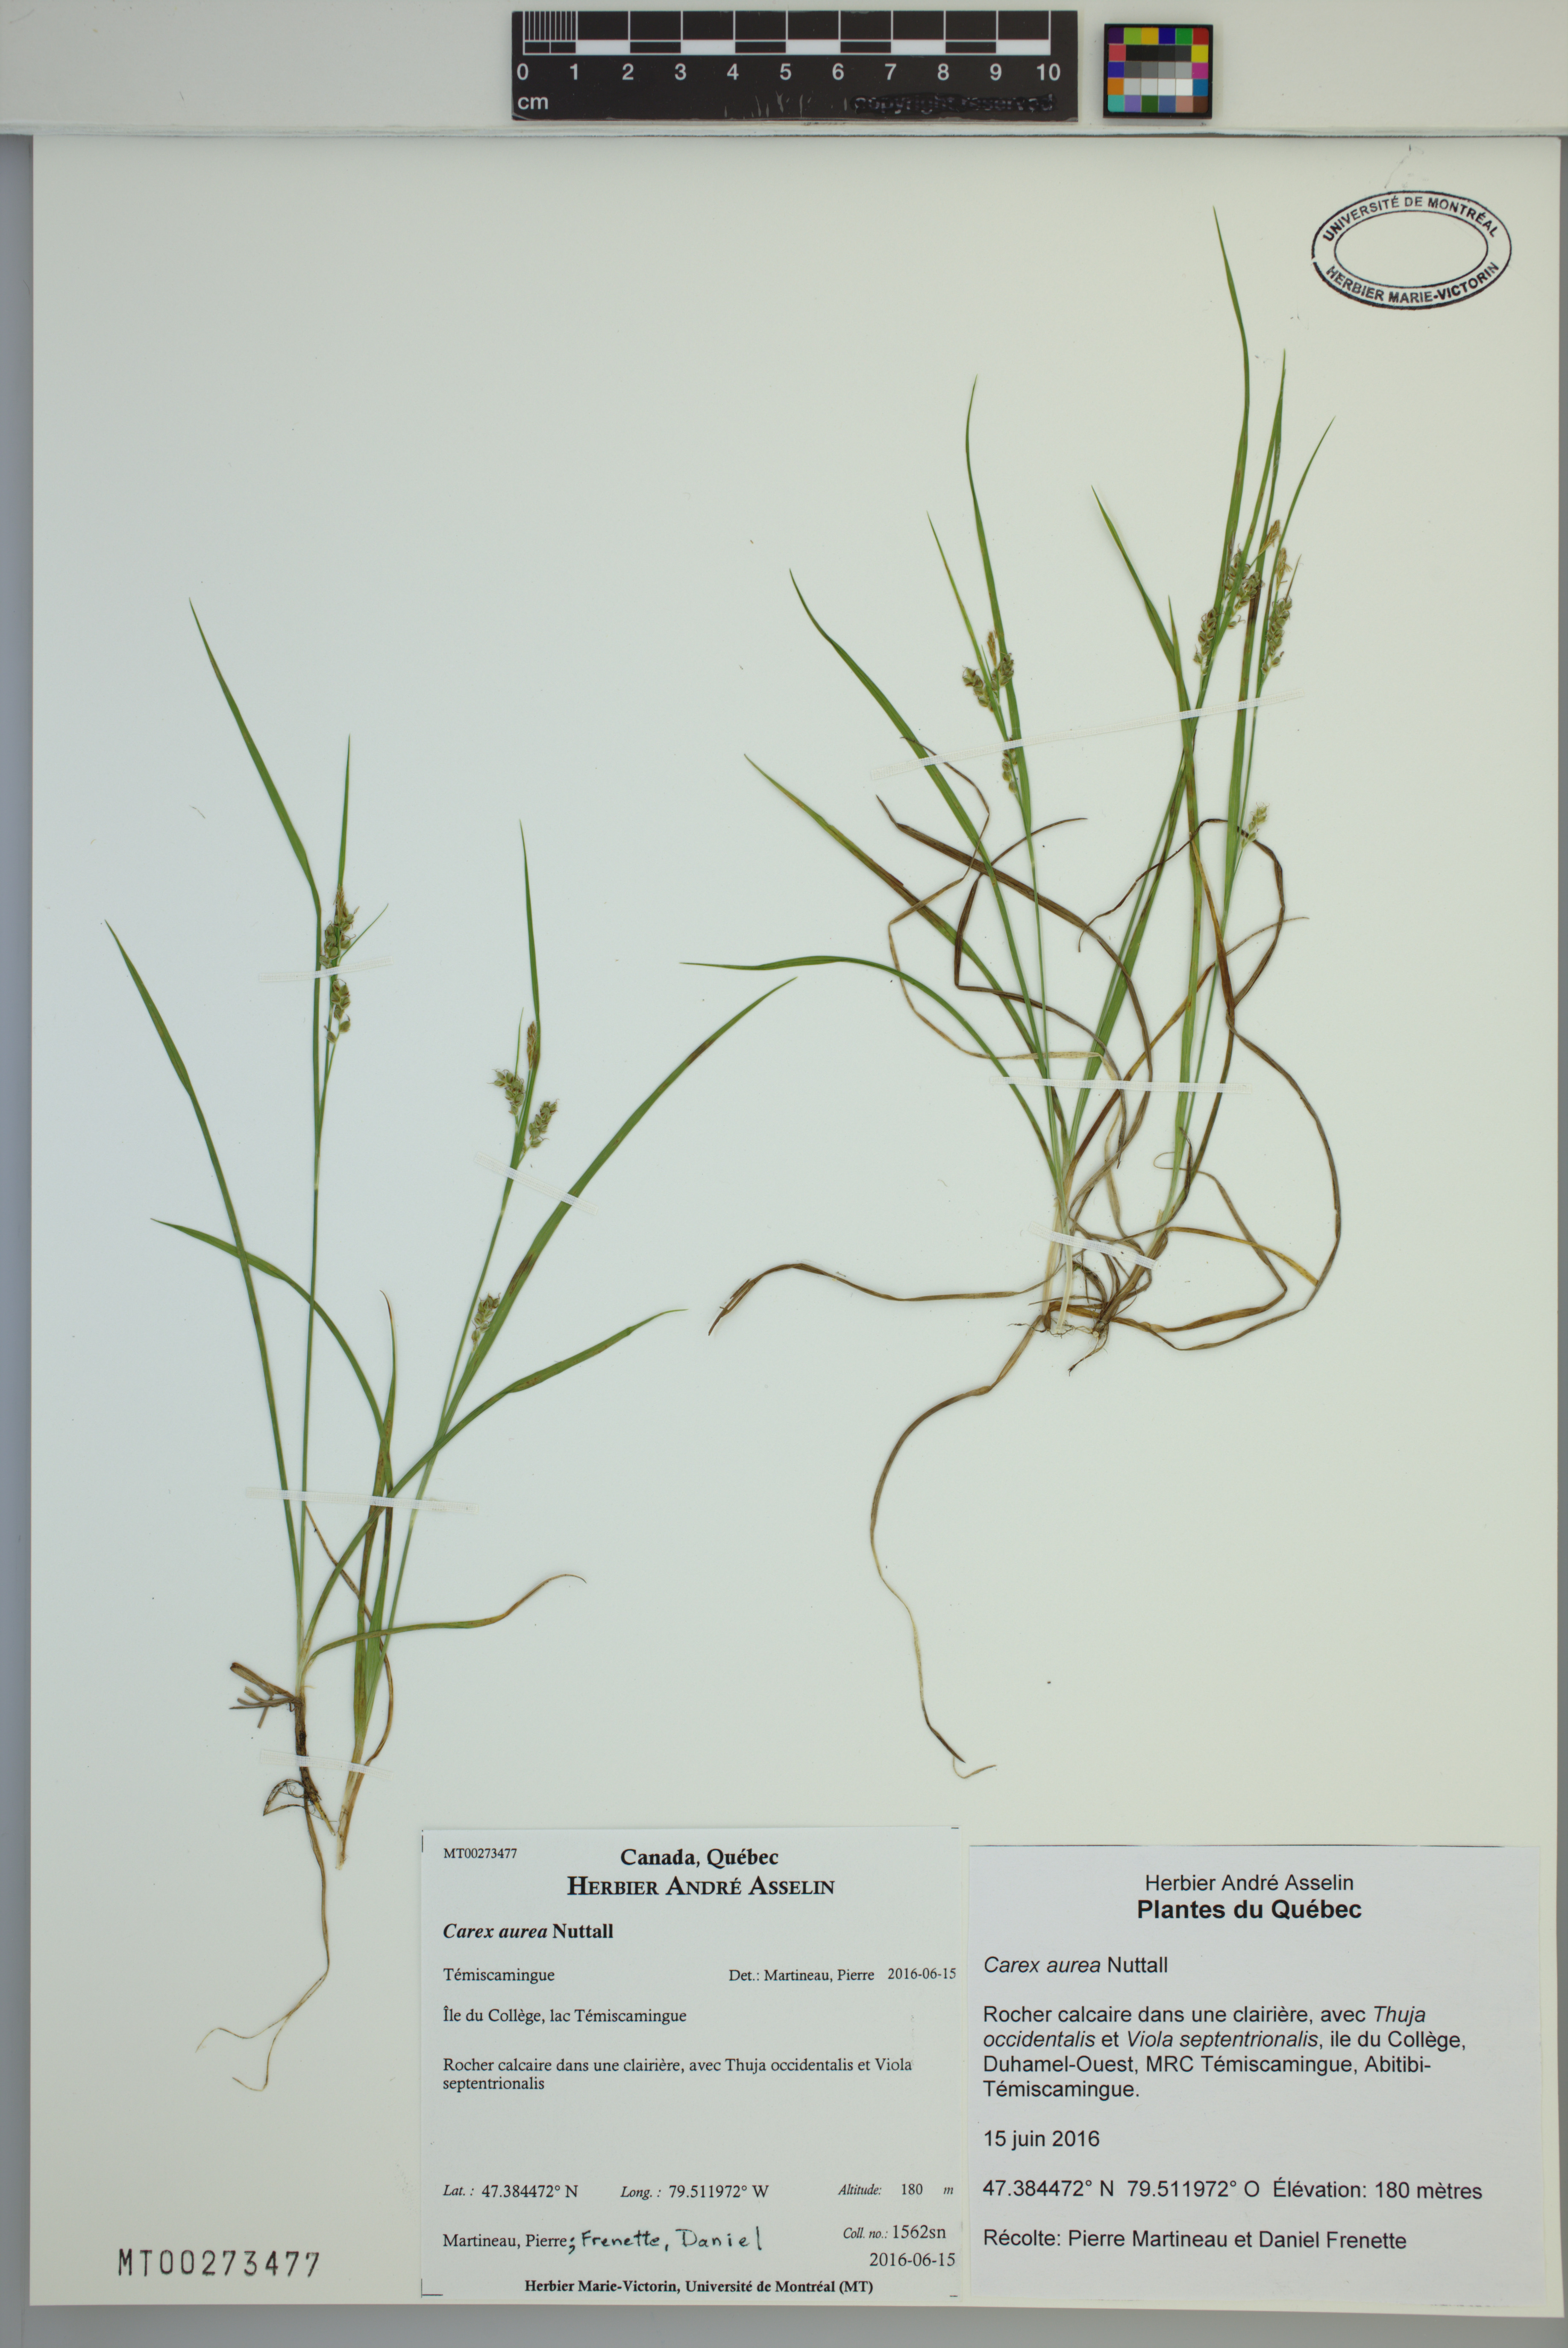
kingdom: Plantae
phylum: Tracheophyta
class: Liliopsida
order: Poales
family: Cyperaceae
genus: Carex
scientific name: Carex aurea
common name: Golden sedge
